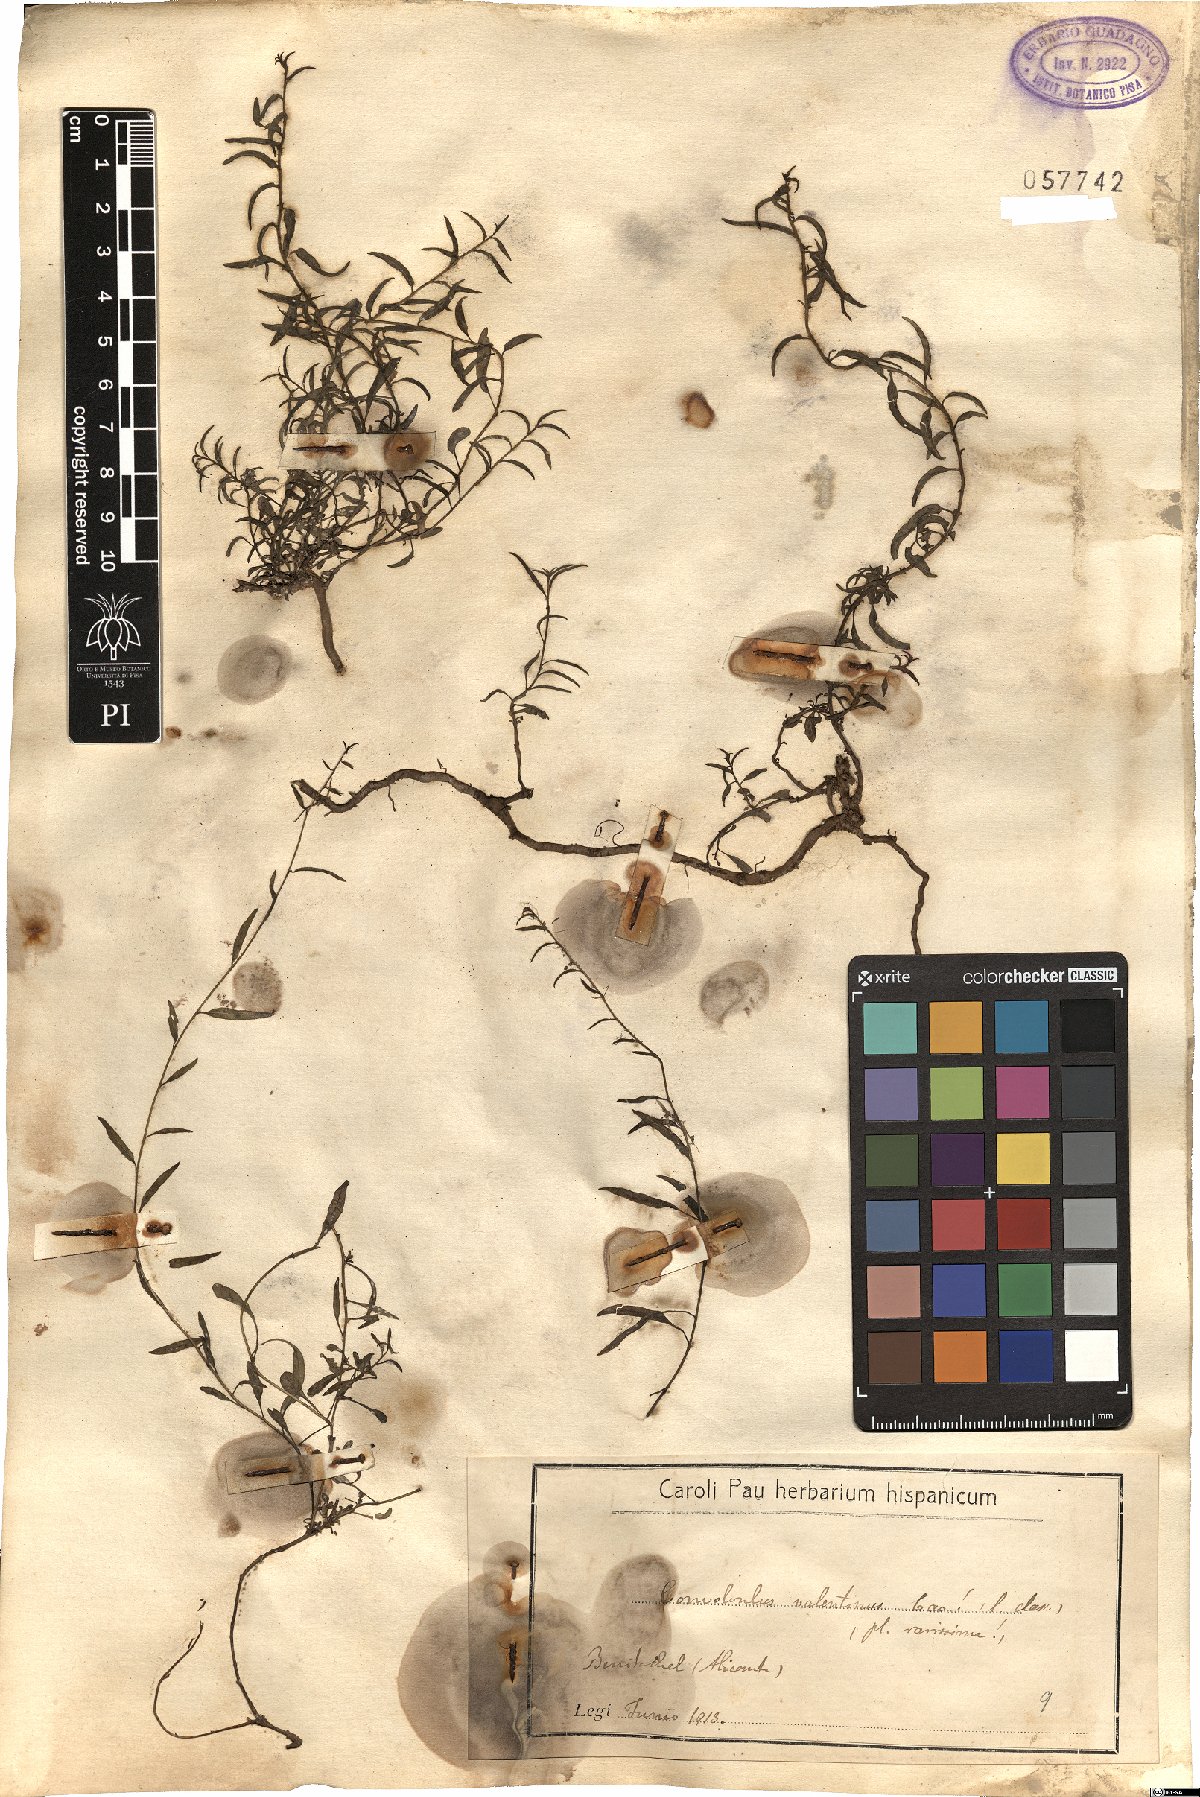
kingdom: Plantae
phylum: Tracheophyta
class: Magnoliopsida
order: Solanales
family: Convolvulaceae
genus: Convolvulus
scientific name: Convolvulus valentinus
